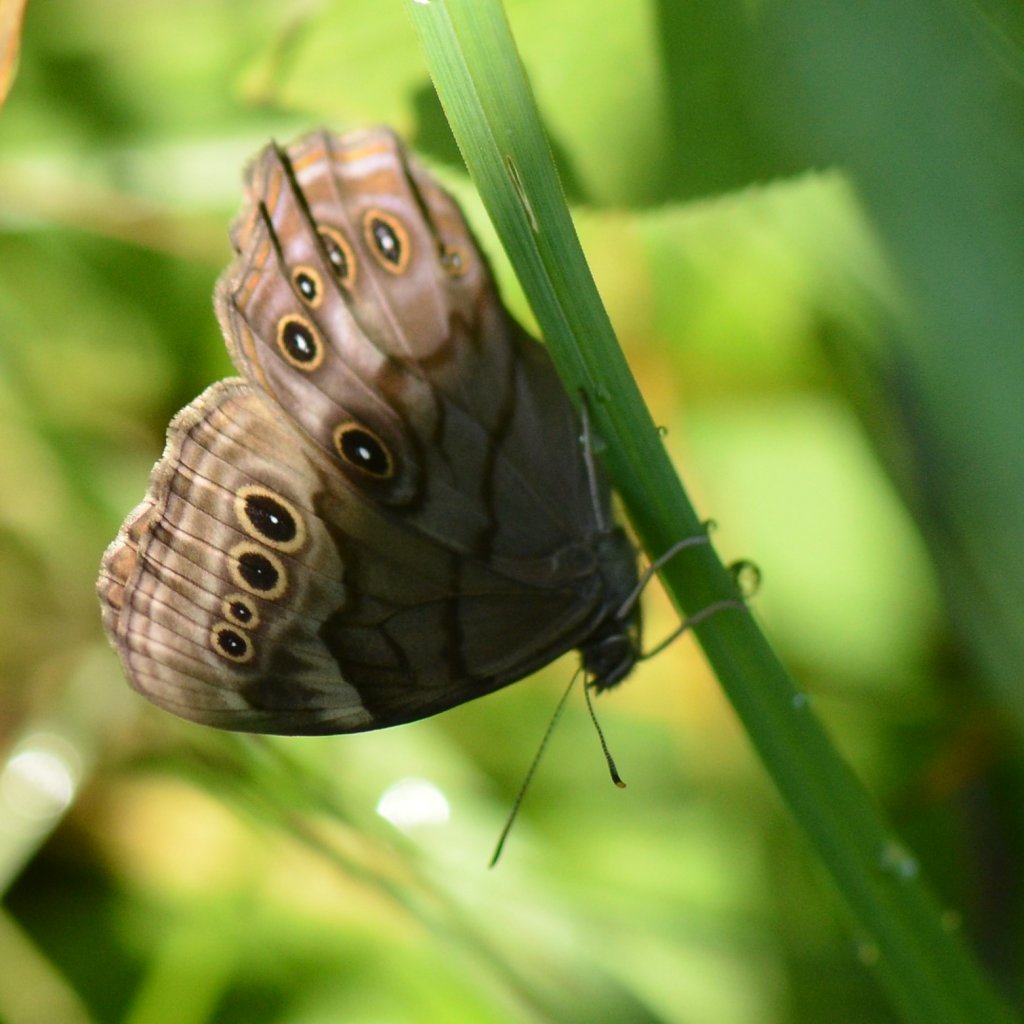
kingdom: Animalia
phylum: Arthropoda
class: Insecta
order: Lepidoptera
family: Nymphalidae
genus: Lethe
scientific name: Lethe anthedon
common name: Northern Pearly-Eye
